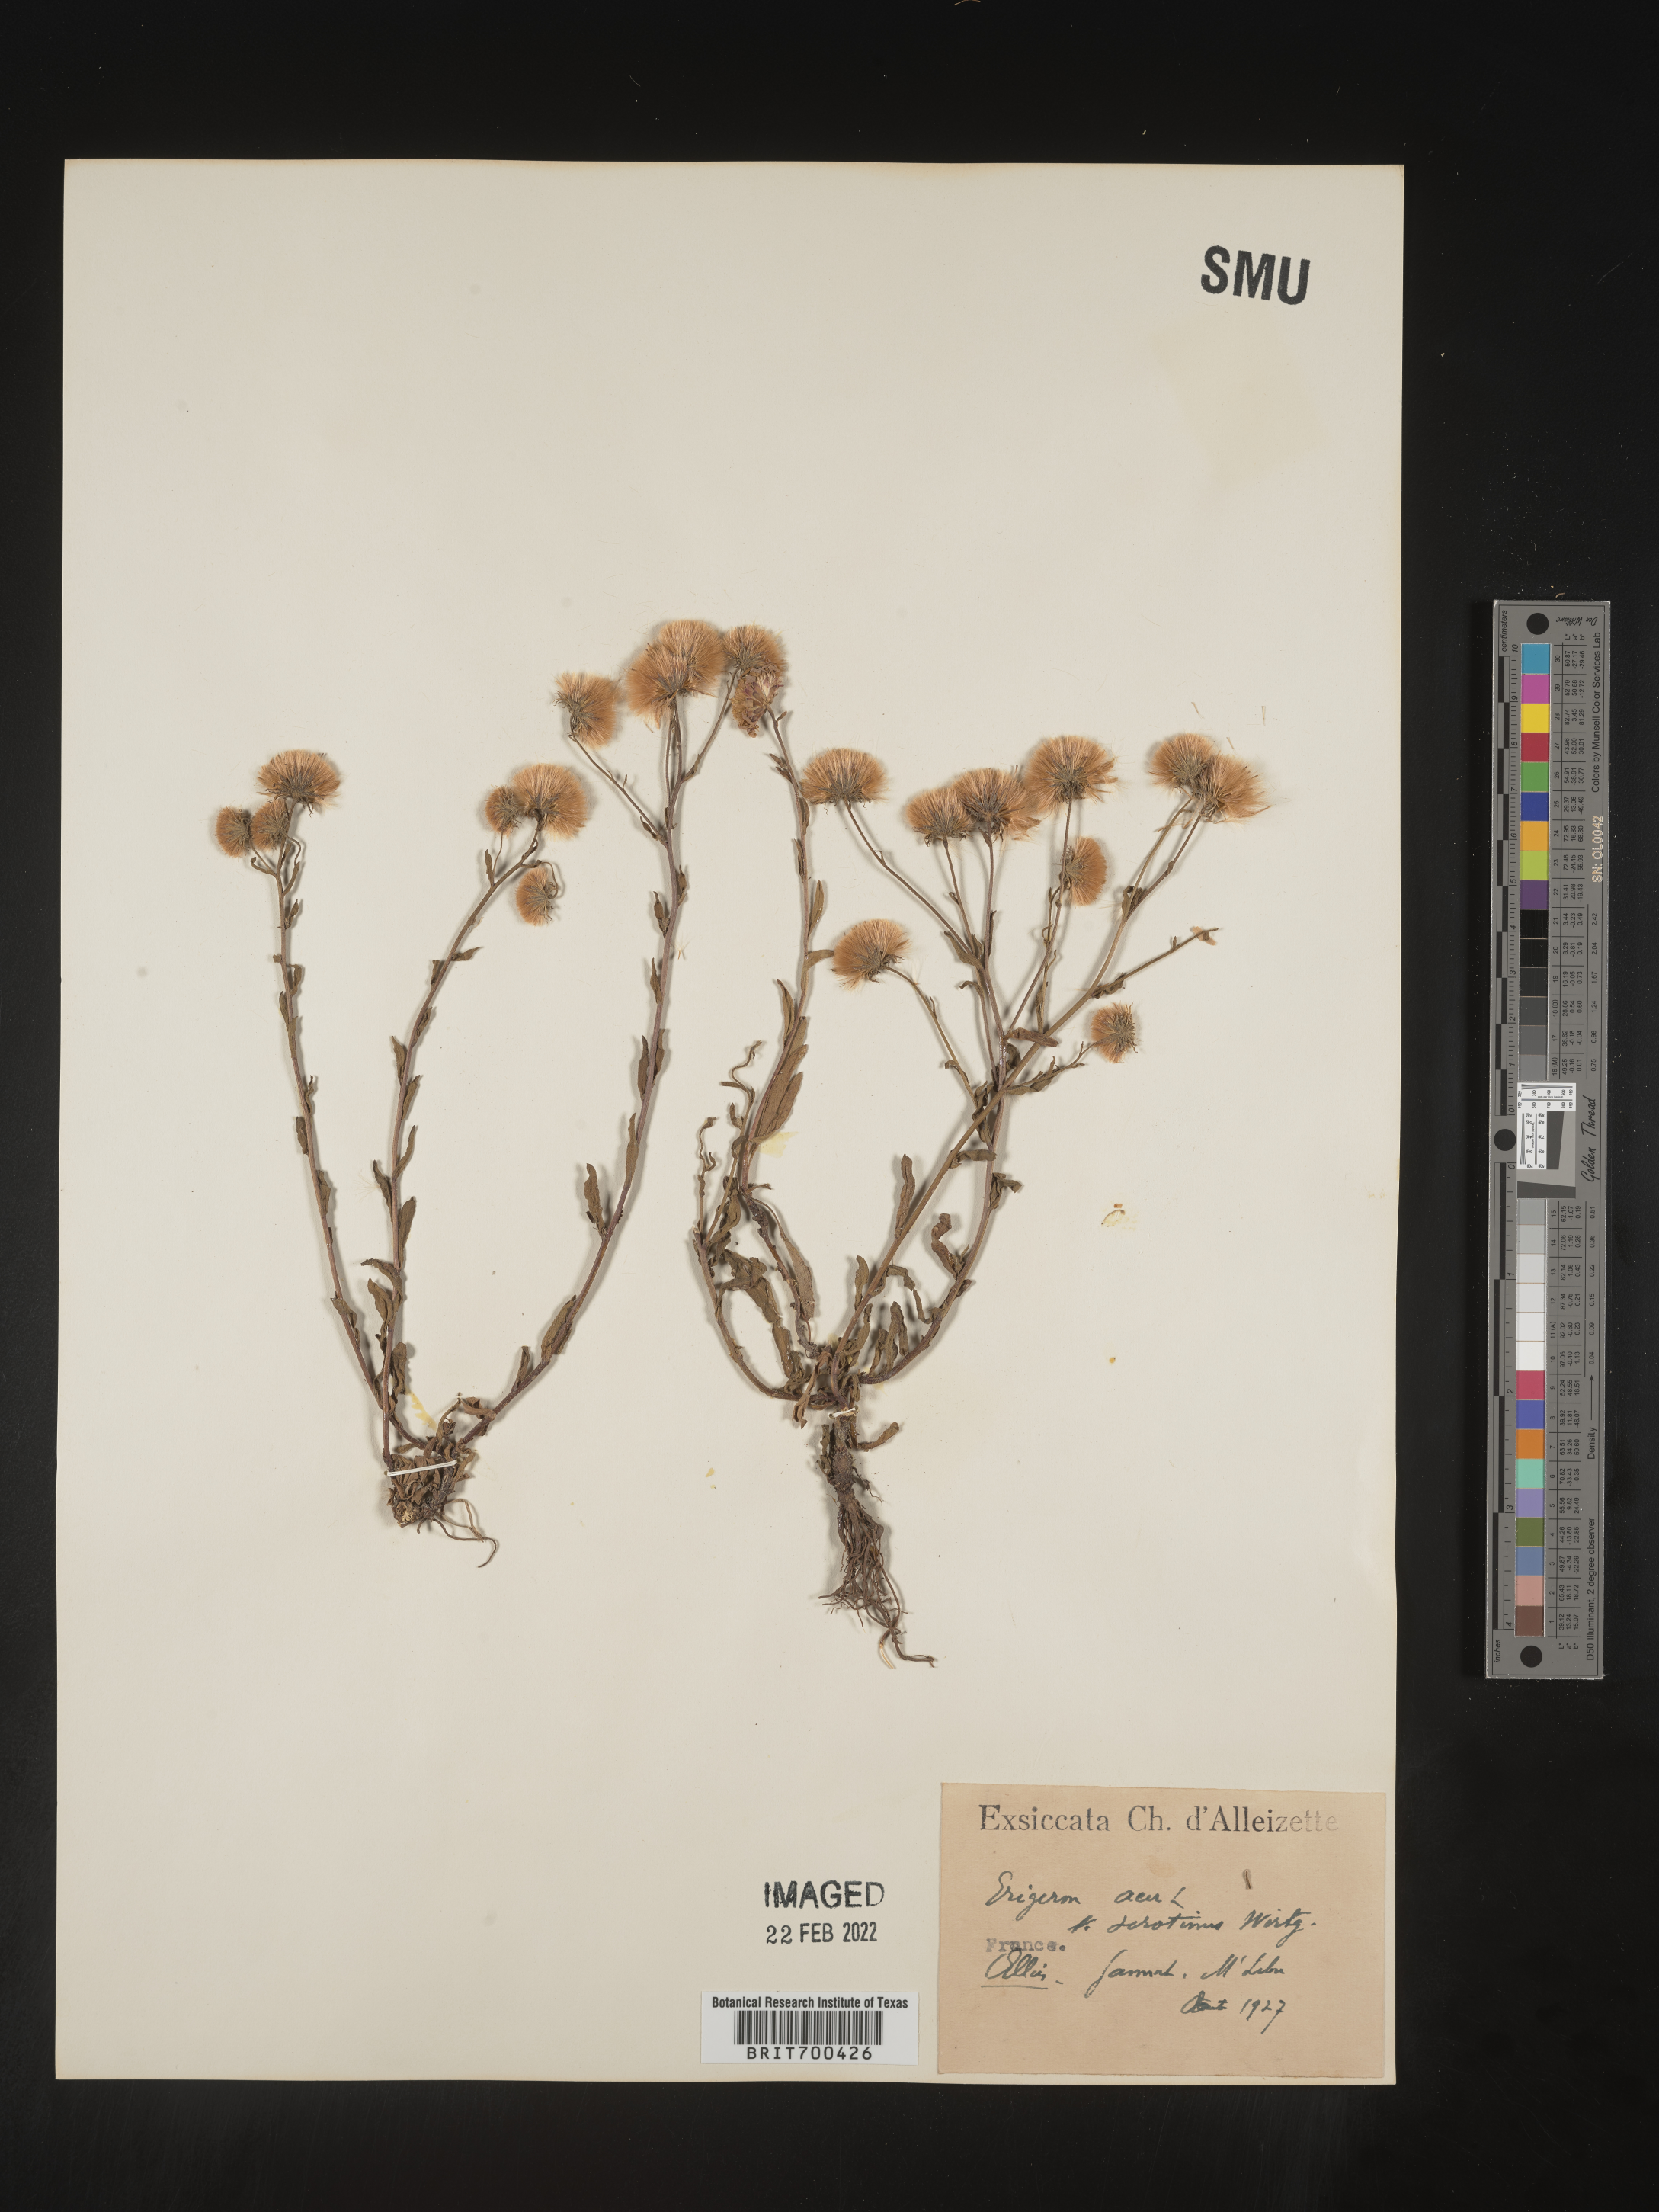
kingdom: Plantae
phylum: Tracheophyta
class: Magnoliopsida
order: Asterales
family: Asteraceae
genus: Erigeron
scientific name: Erigeron
